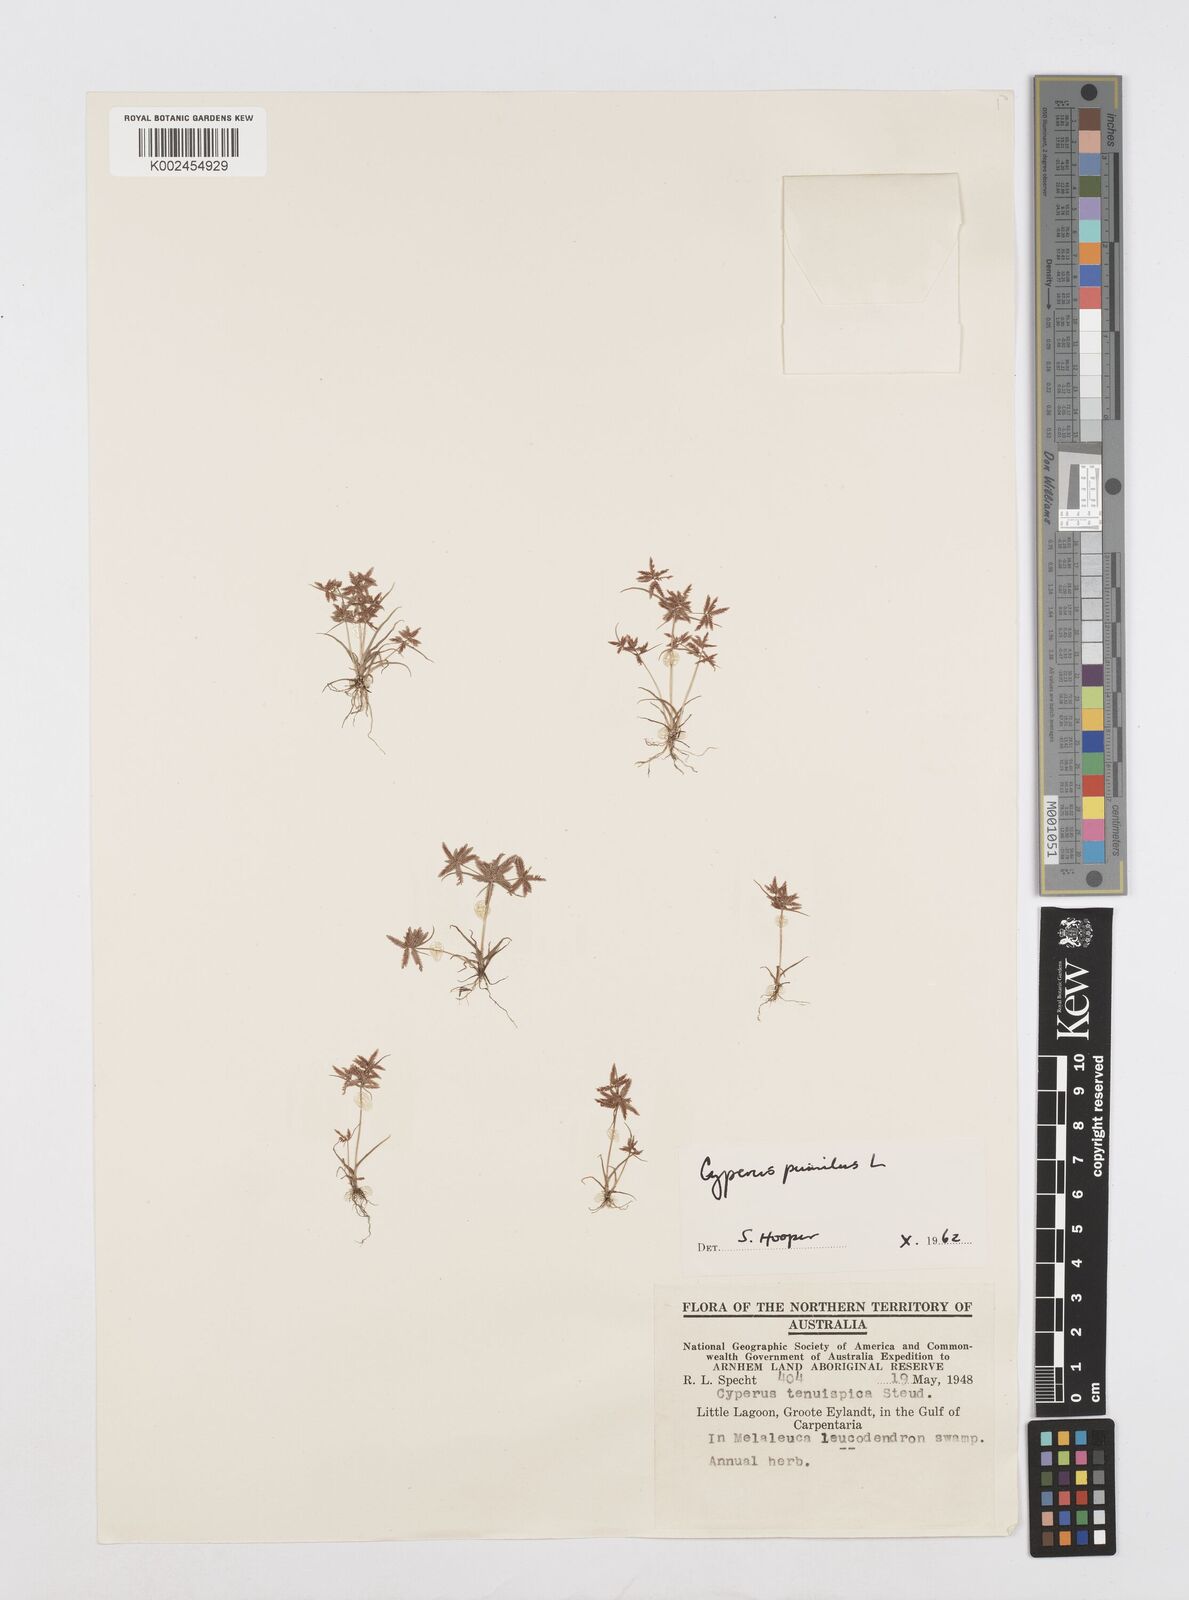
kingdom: Plantae
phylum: Tracheophyta
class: Liliopsida
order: Poales
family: Cyperaceae
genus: Cyperus
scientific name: Cyperus pumilus
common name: Low flatsedge
